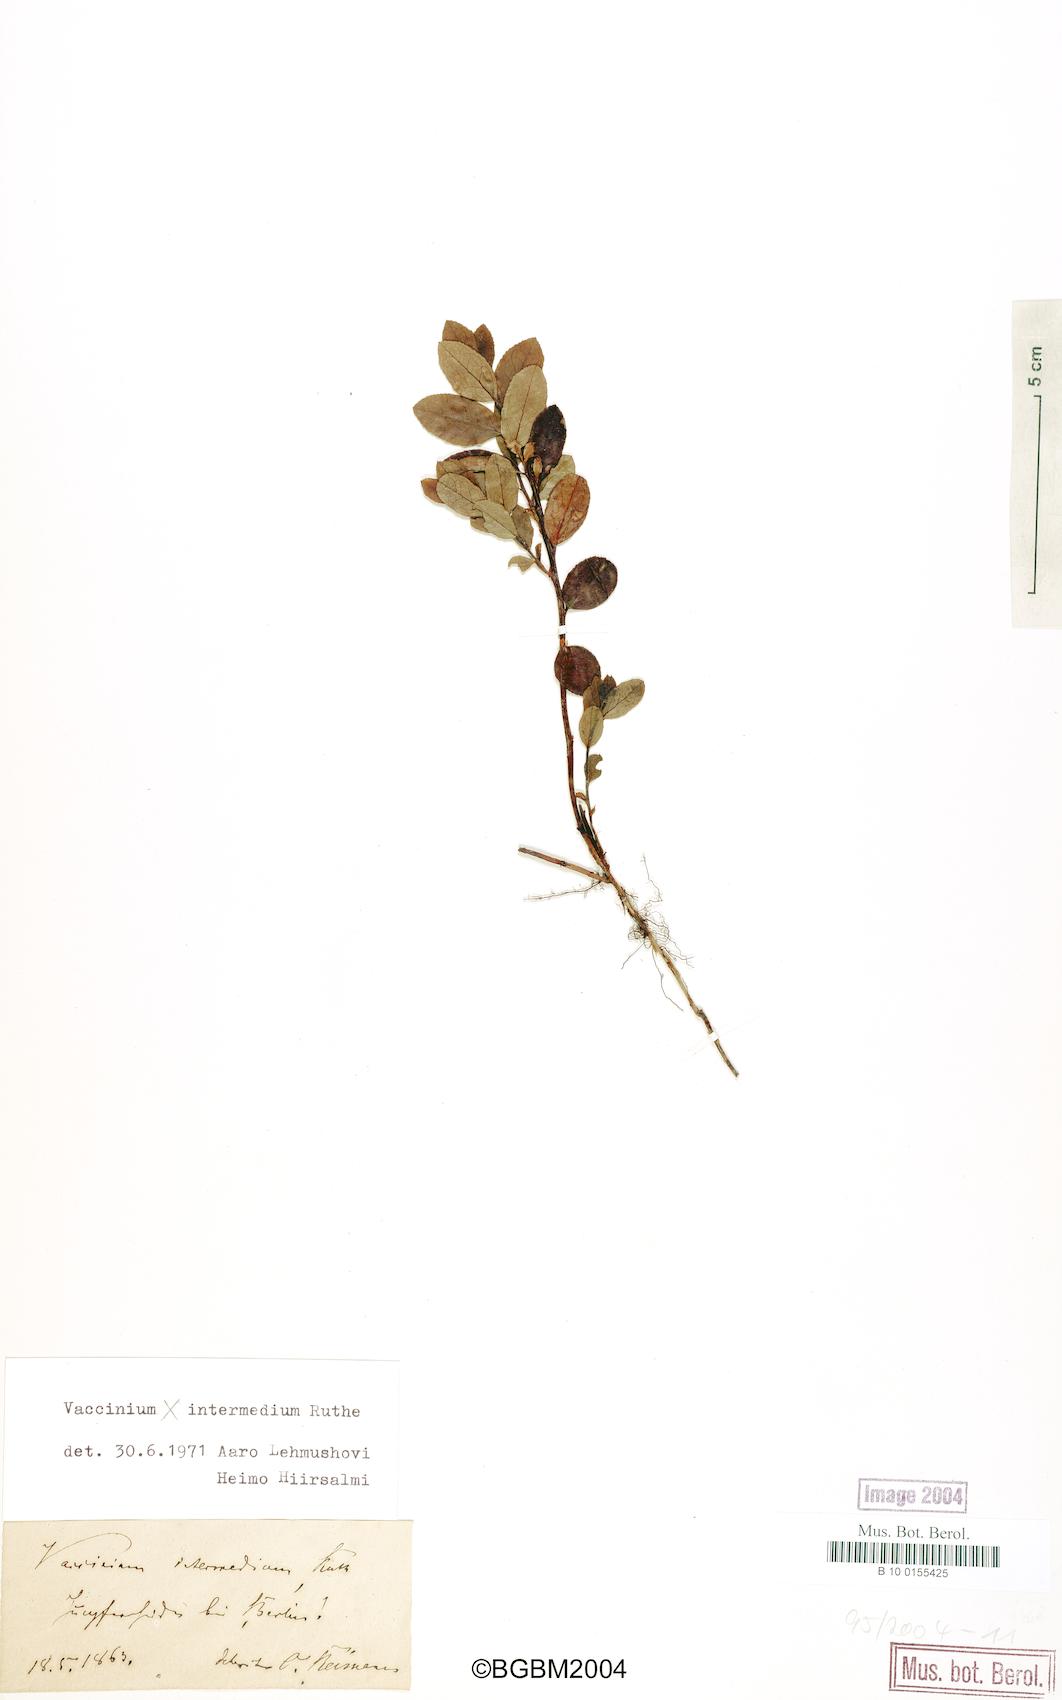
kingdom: Plantae
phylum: Tracheophyta
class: Magnoliopsida
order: Ericales
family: Ericaceae
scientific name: Ericaceae
